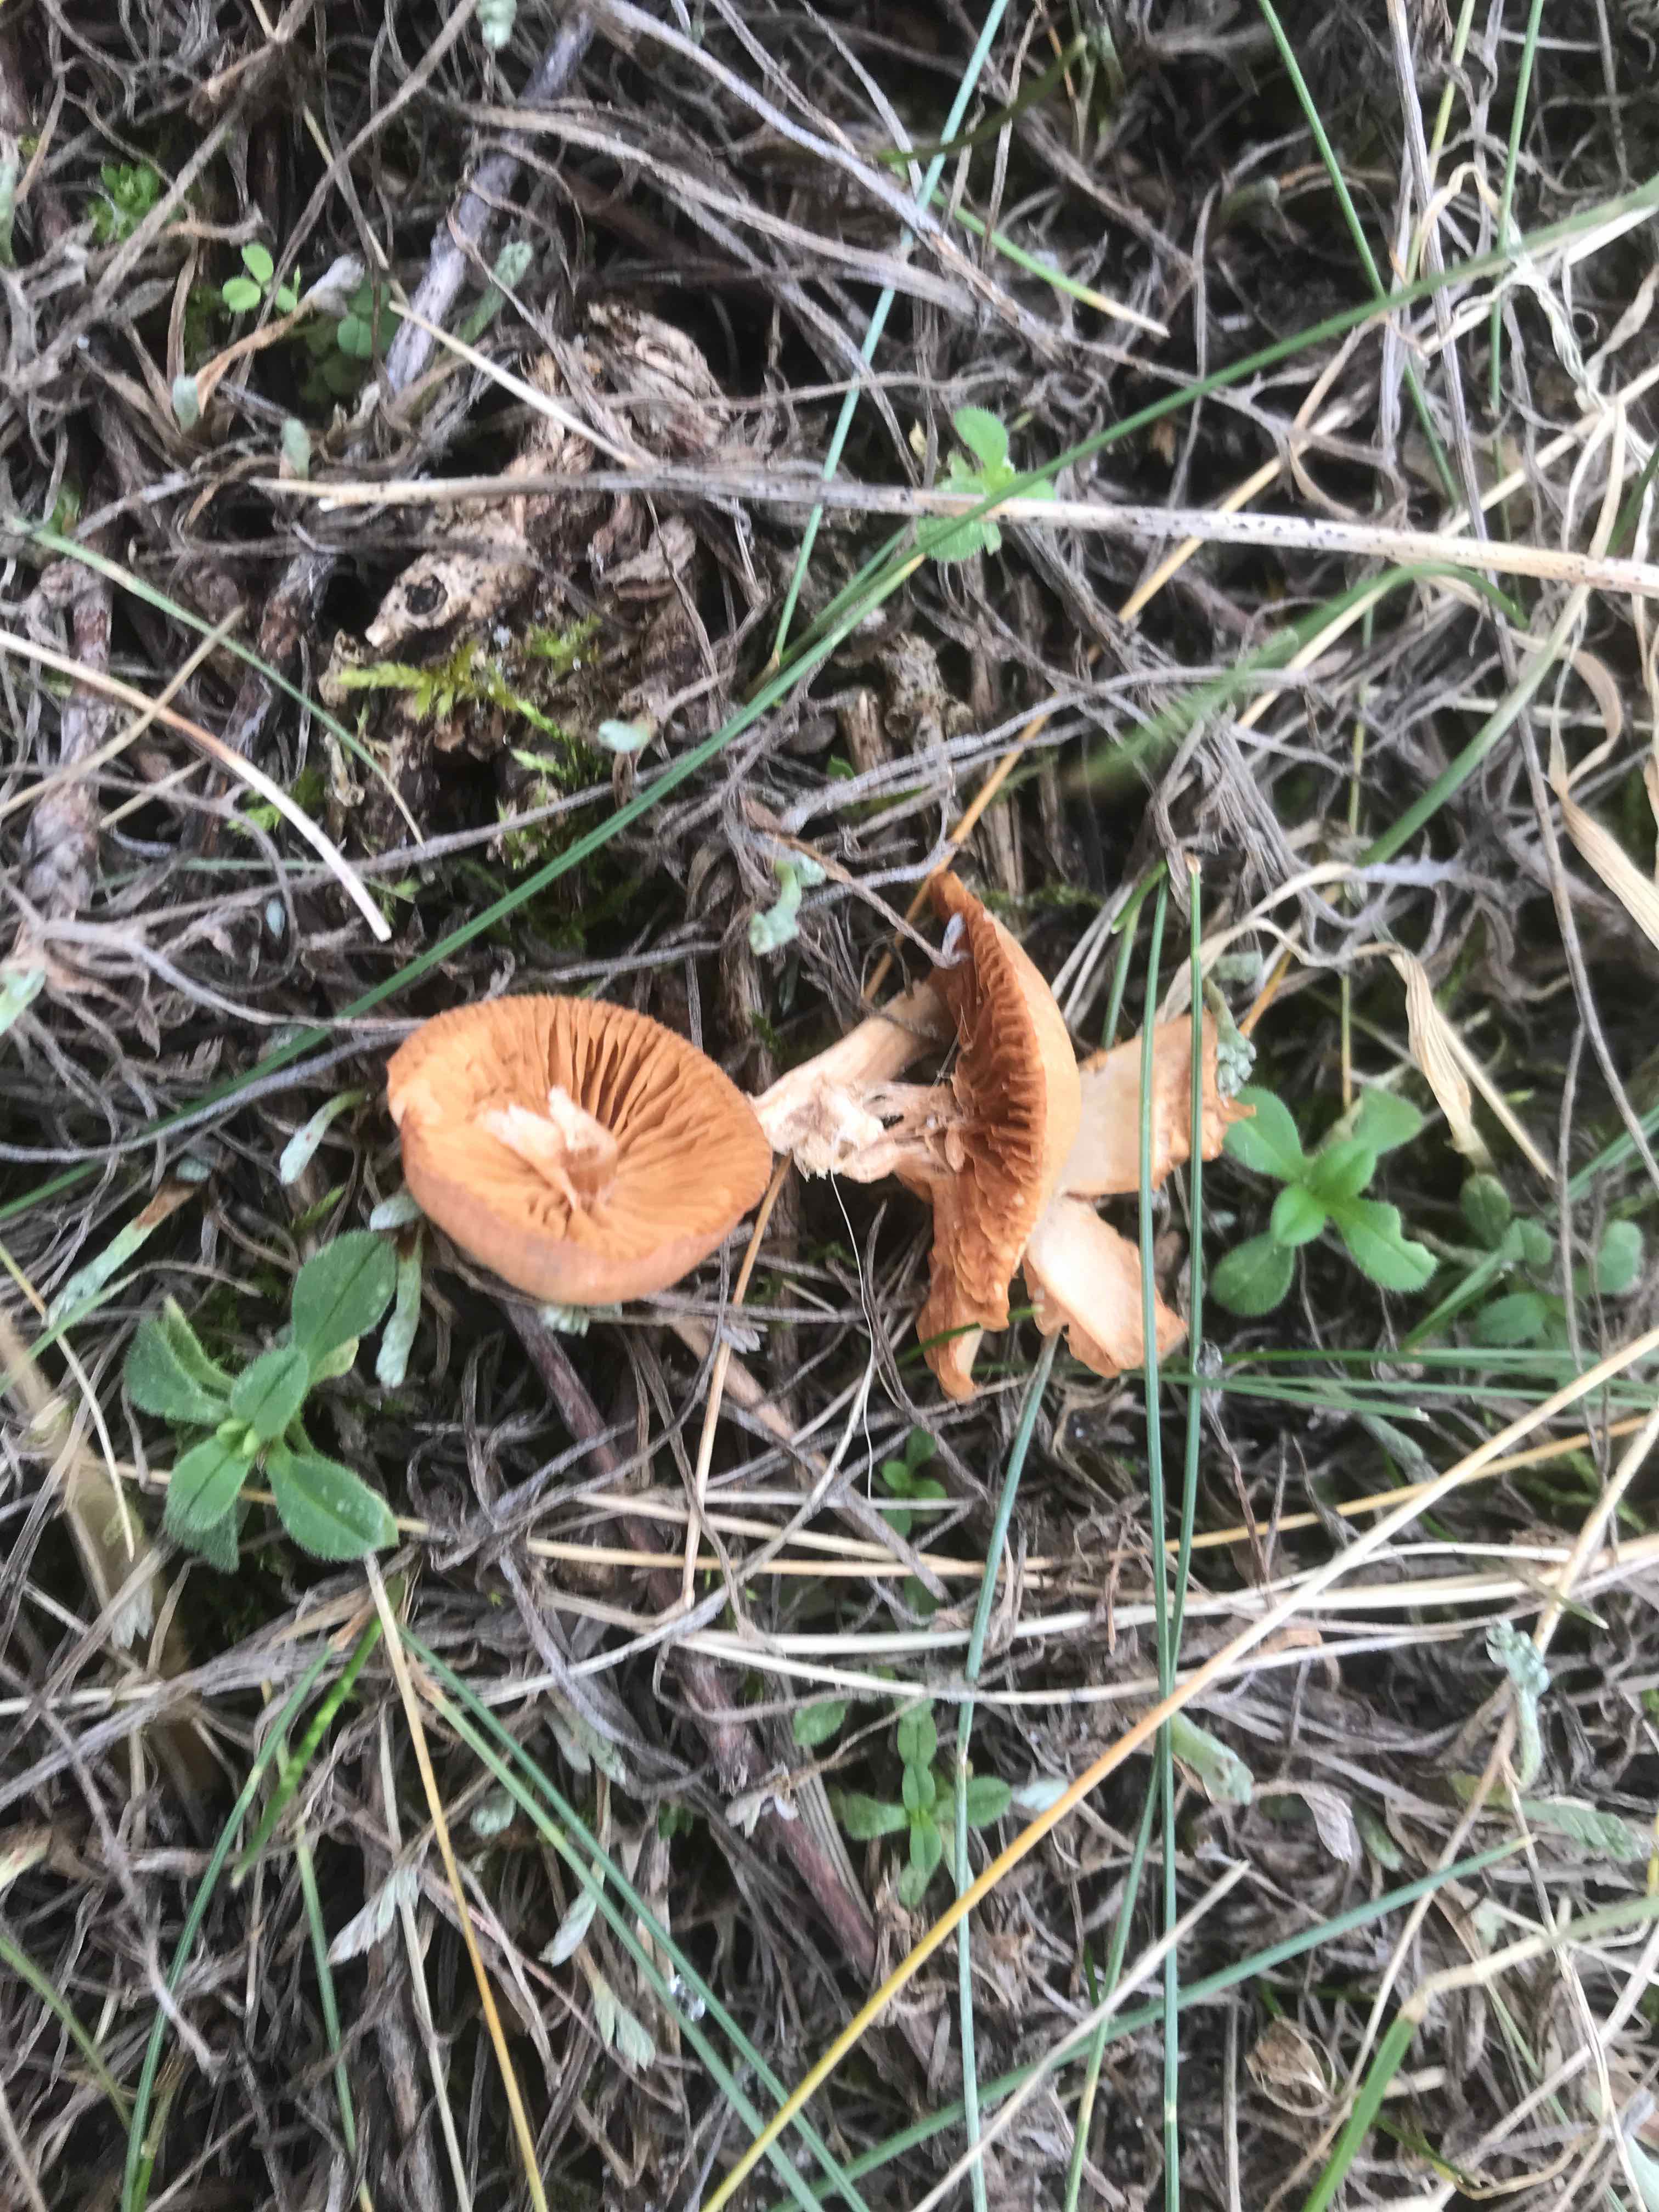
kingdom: Fungi
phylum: Basidiomycota
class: Agaricomycetes
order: Agaricales
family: Tubariaceae
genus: Tubaria
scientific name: Tubaria
